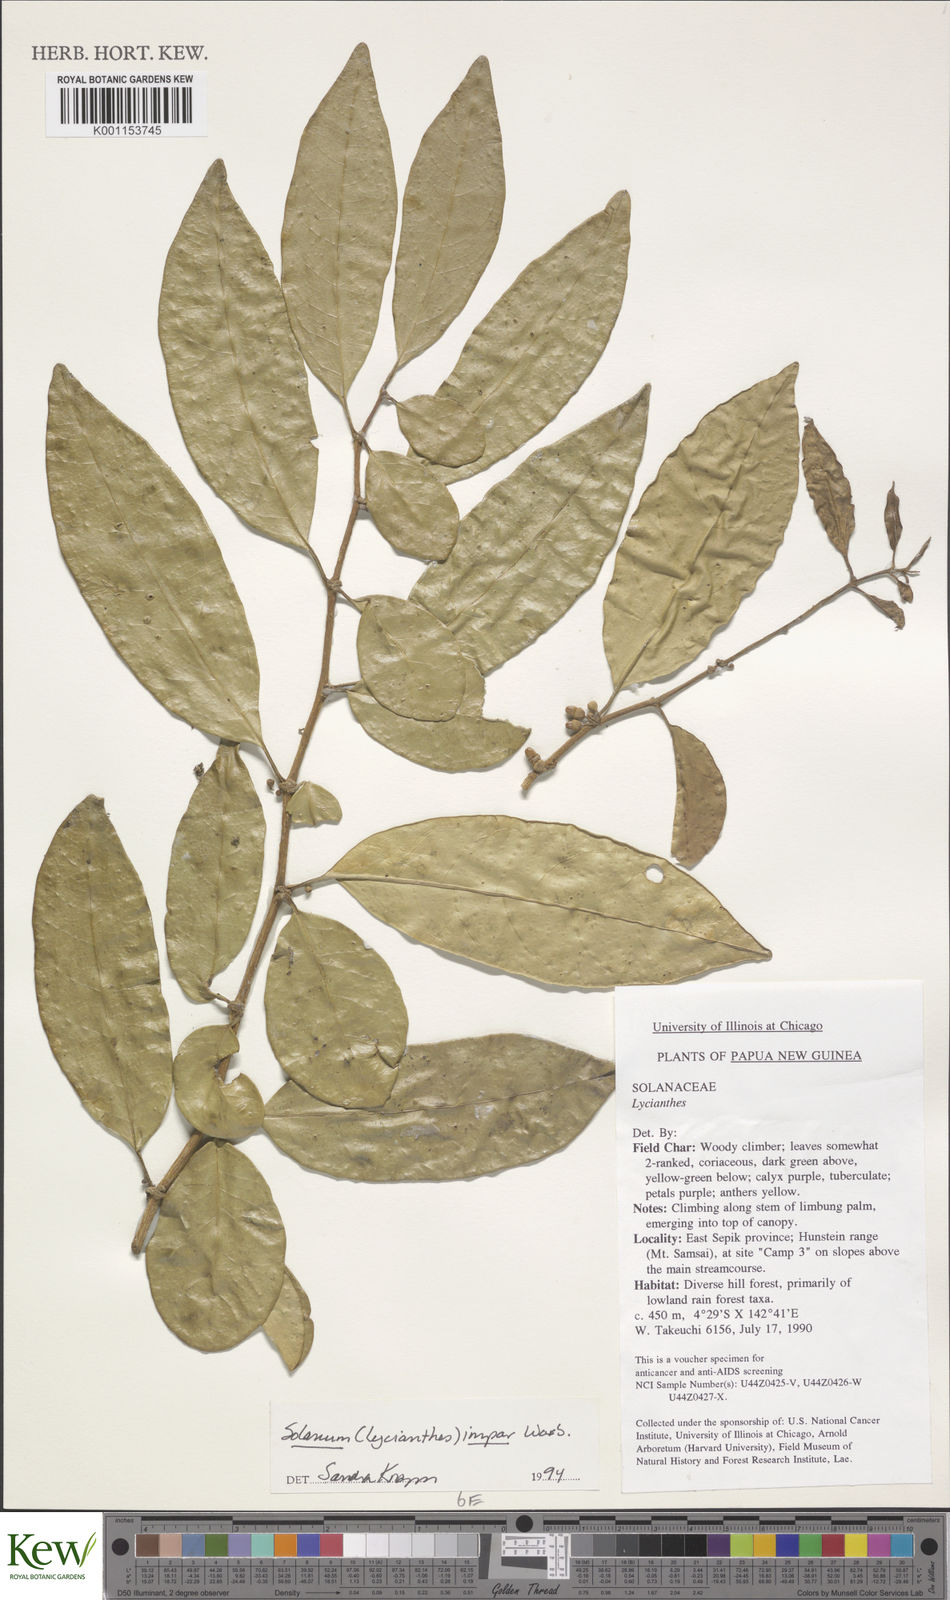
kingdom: Plantae
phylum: Tracheophyta
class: Magnoliopsida
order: Solanales
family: Solanaceae
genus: Lycianthes
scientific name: Lycianthes impar
